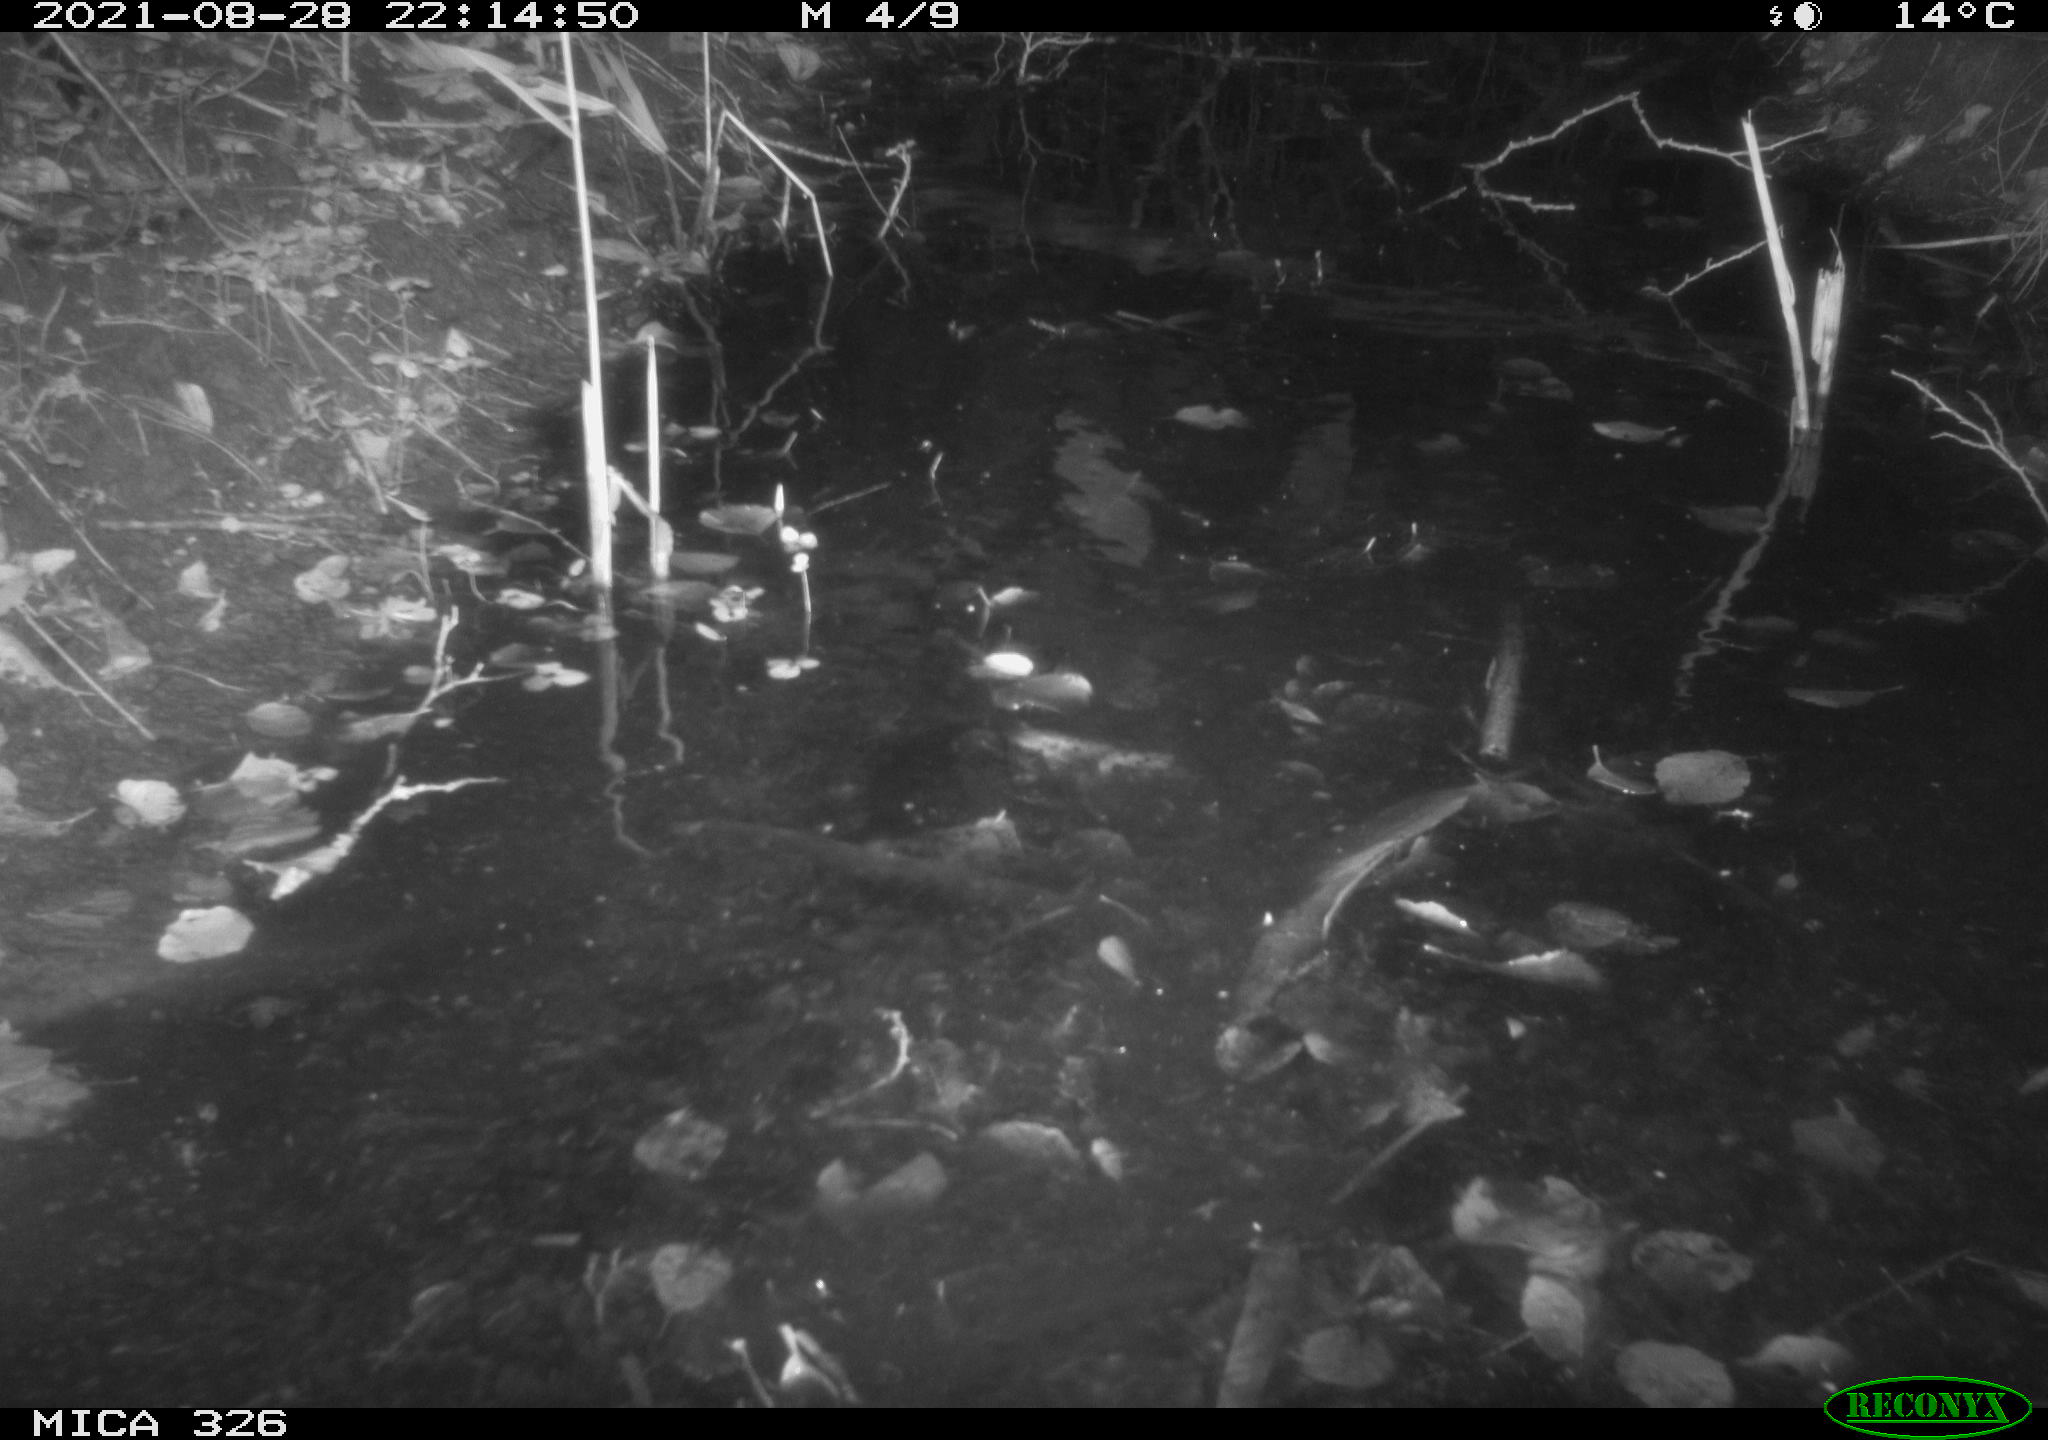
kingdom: Animalia
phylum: Chordata
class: Mammalia
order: Rodentia
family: Myocastoridae
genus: Myocastor
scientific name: Myocastor coypus
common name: Coypu
